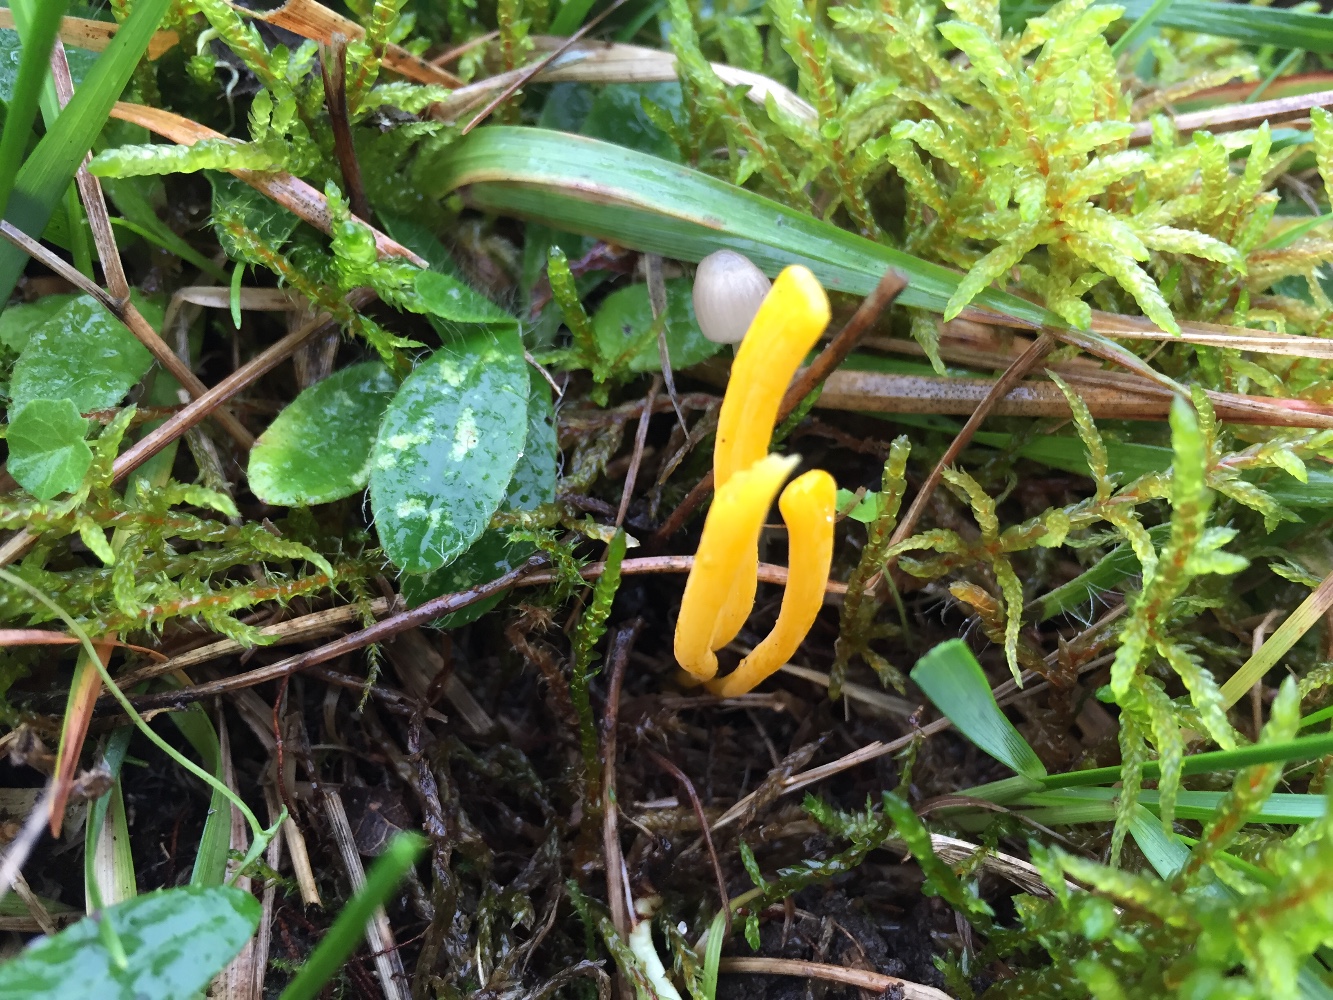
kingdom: Fungi
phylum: Basidiomycota
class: Agaricomycetes
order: Agaricales
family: Clavariaceae
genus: Clavulinopsis
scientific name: Clavulinopsis helvola
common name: orangegul køllesvamp
